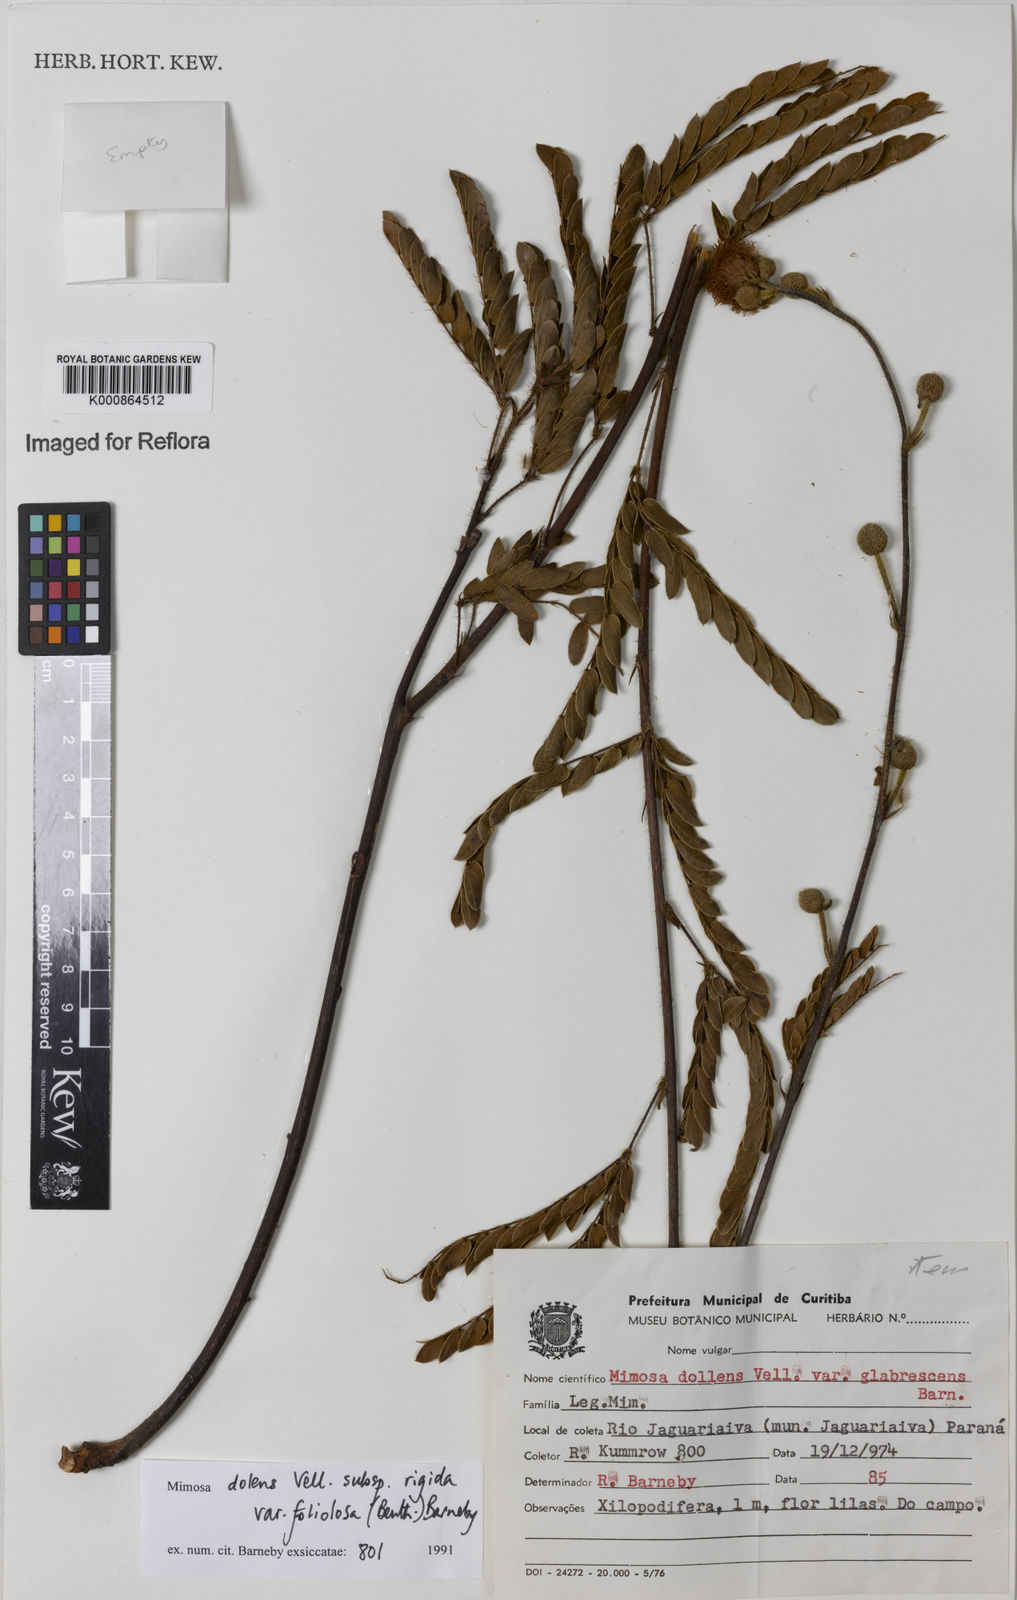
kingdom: Plantae
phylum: Tracheophyta
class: Magnoliopsida
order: Fabales
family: Fabaceae
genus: Mimosa
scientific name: Mimosa dolens
